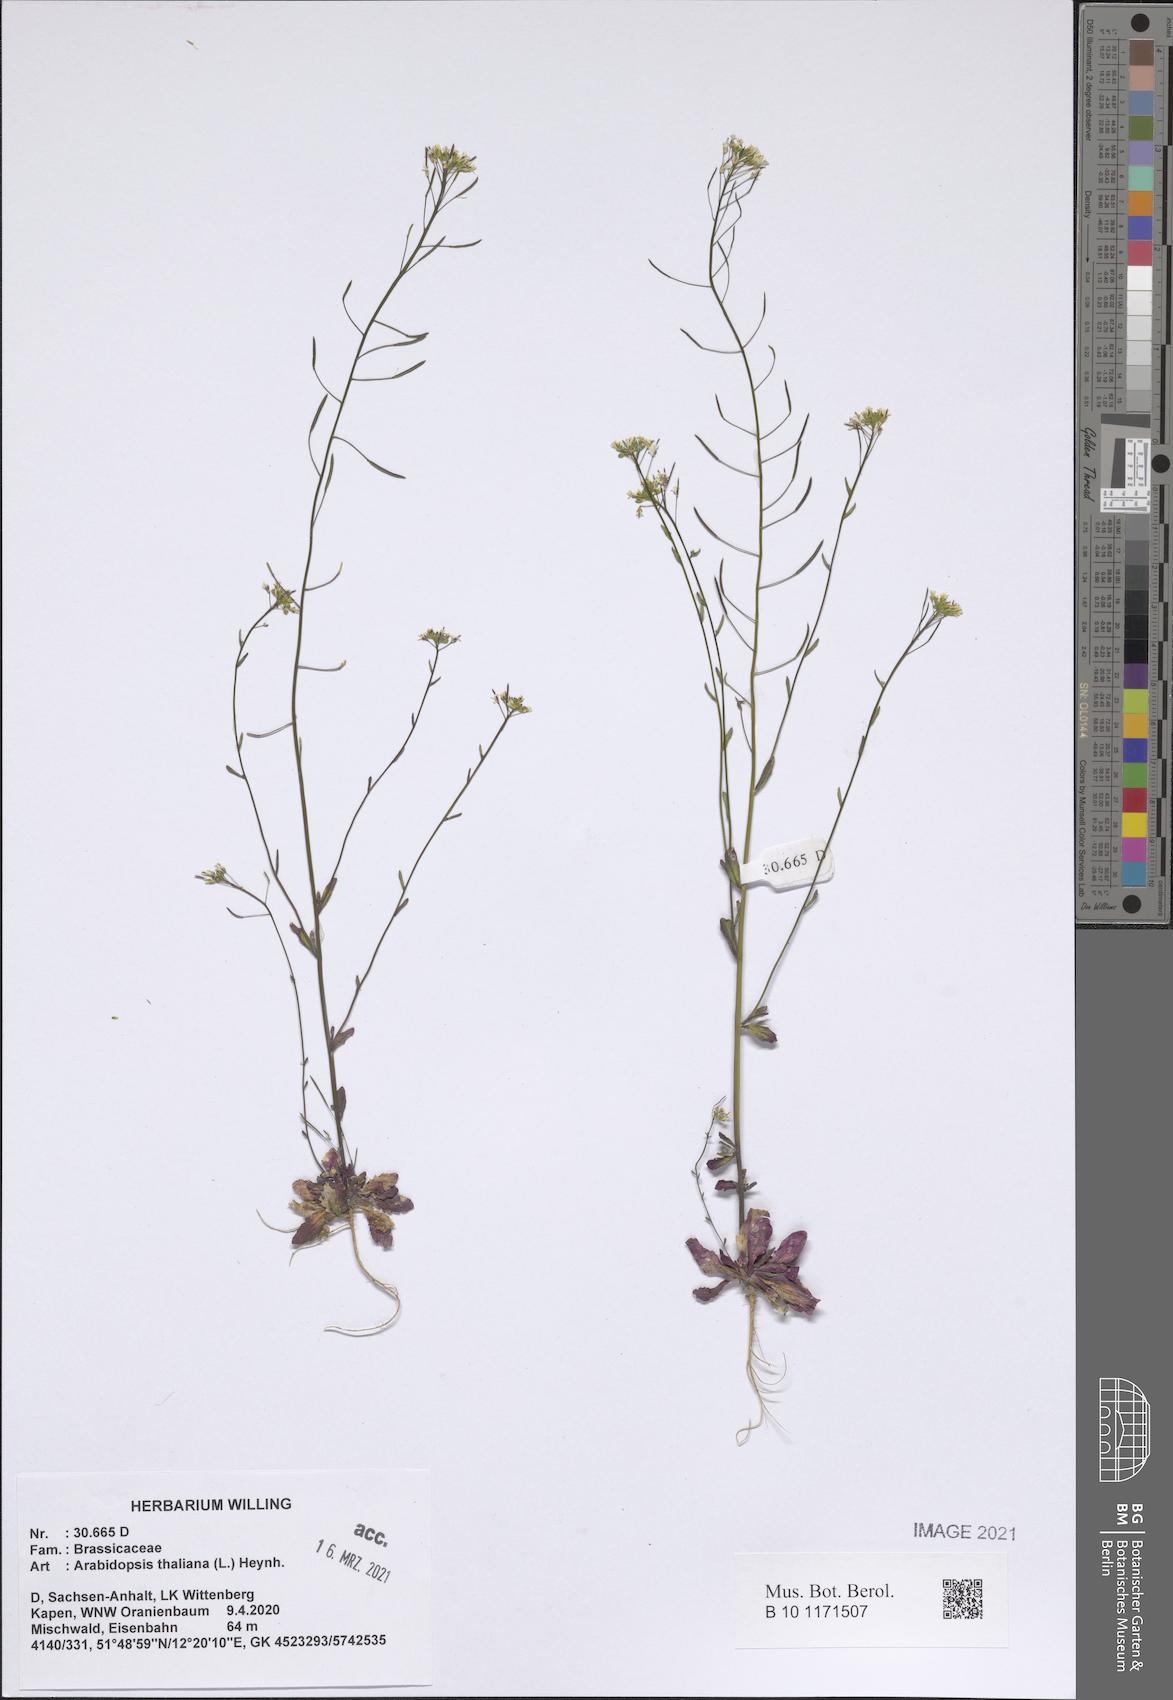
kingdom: Plantae
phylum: Tracheophyta
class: Magnoliopsida
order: Brassicales
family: Brassicaceae
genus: Arabidopsis
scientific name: Arabidopsis thaliana
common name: Thale cress
